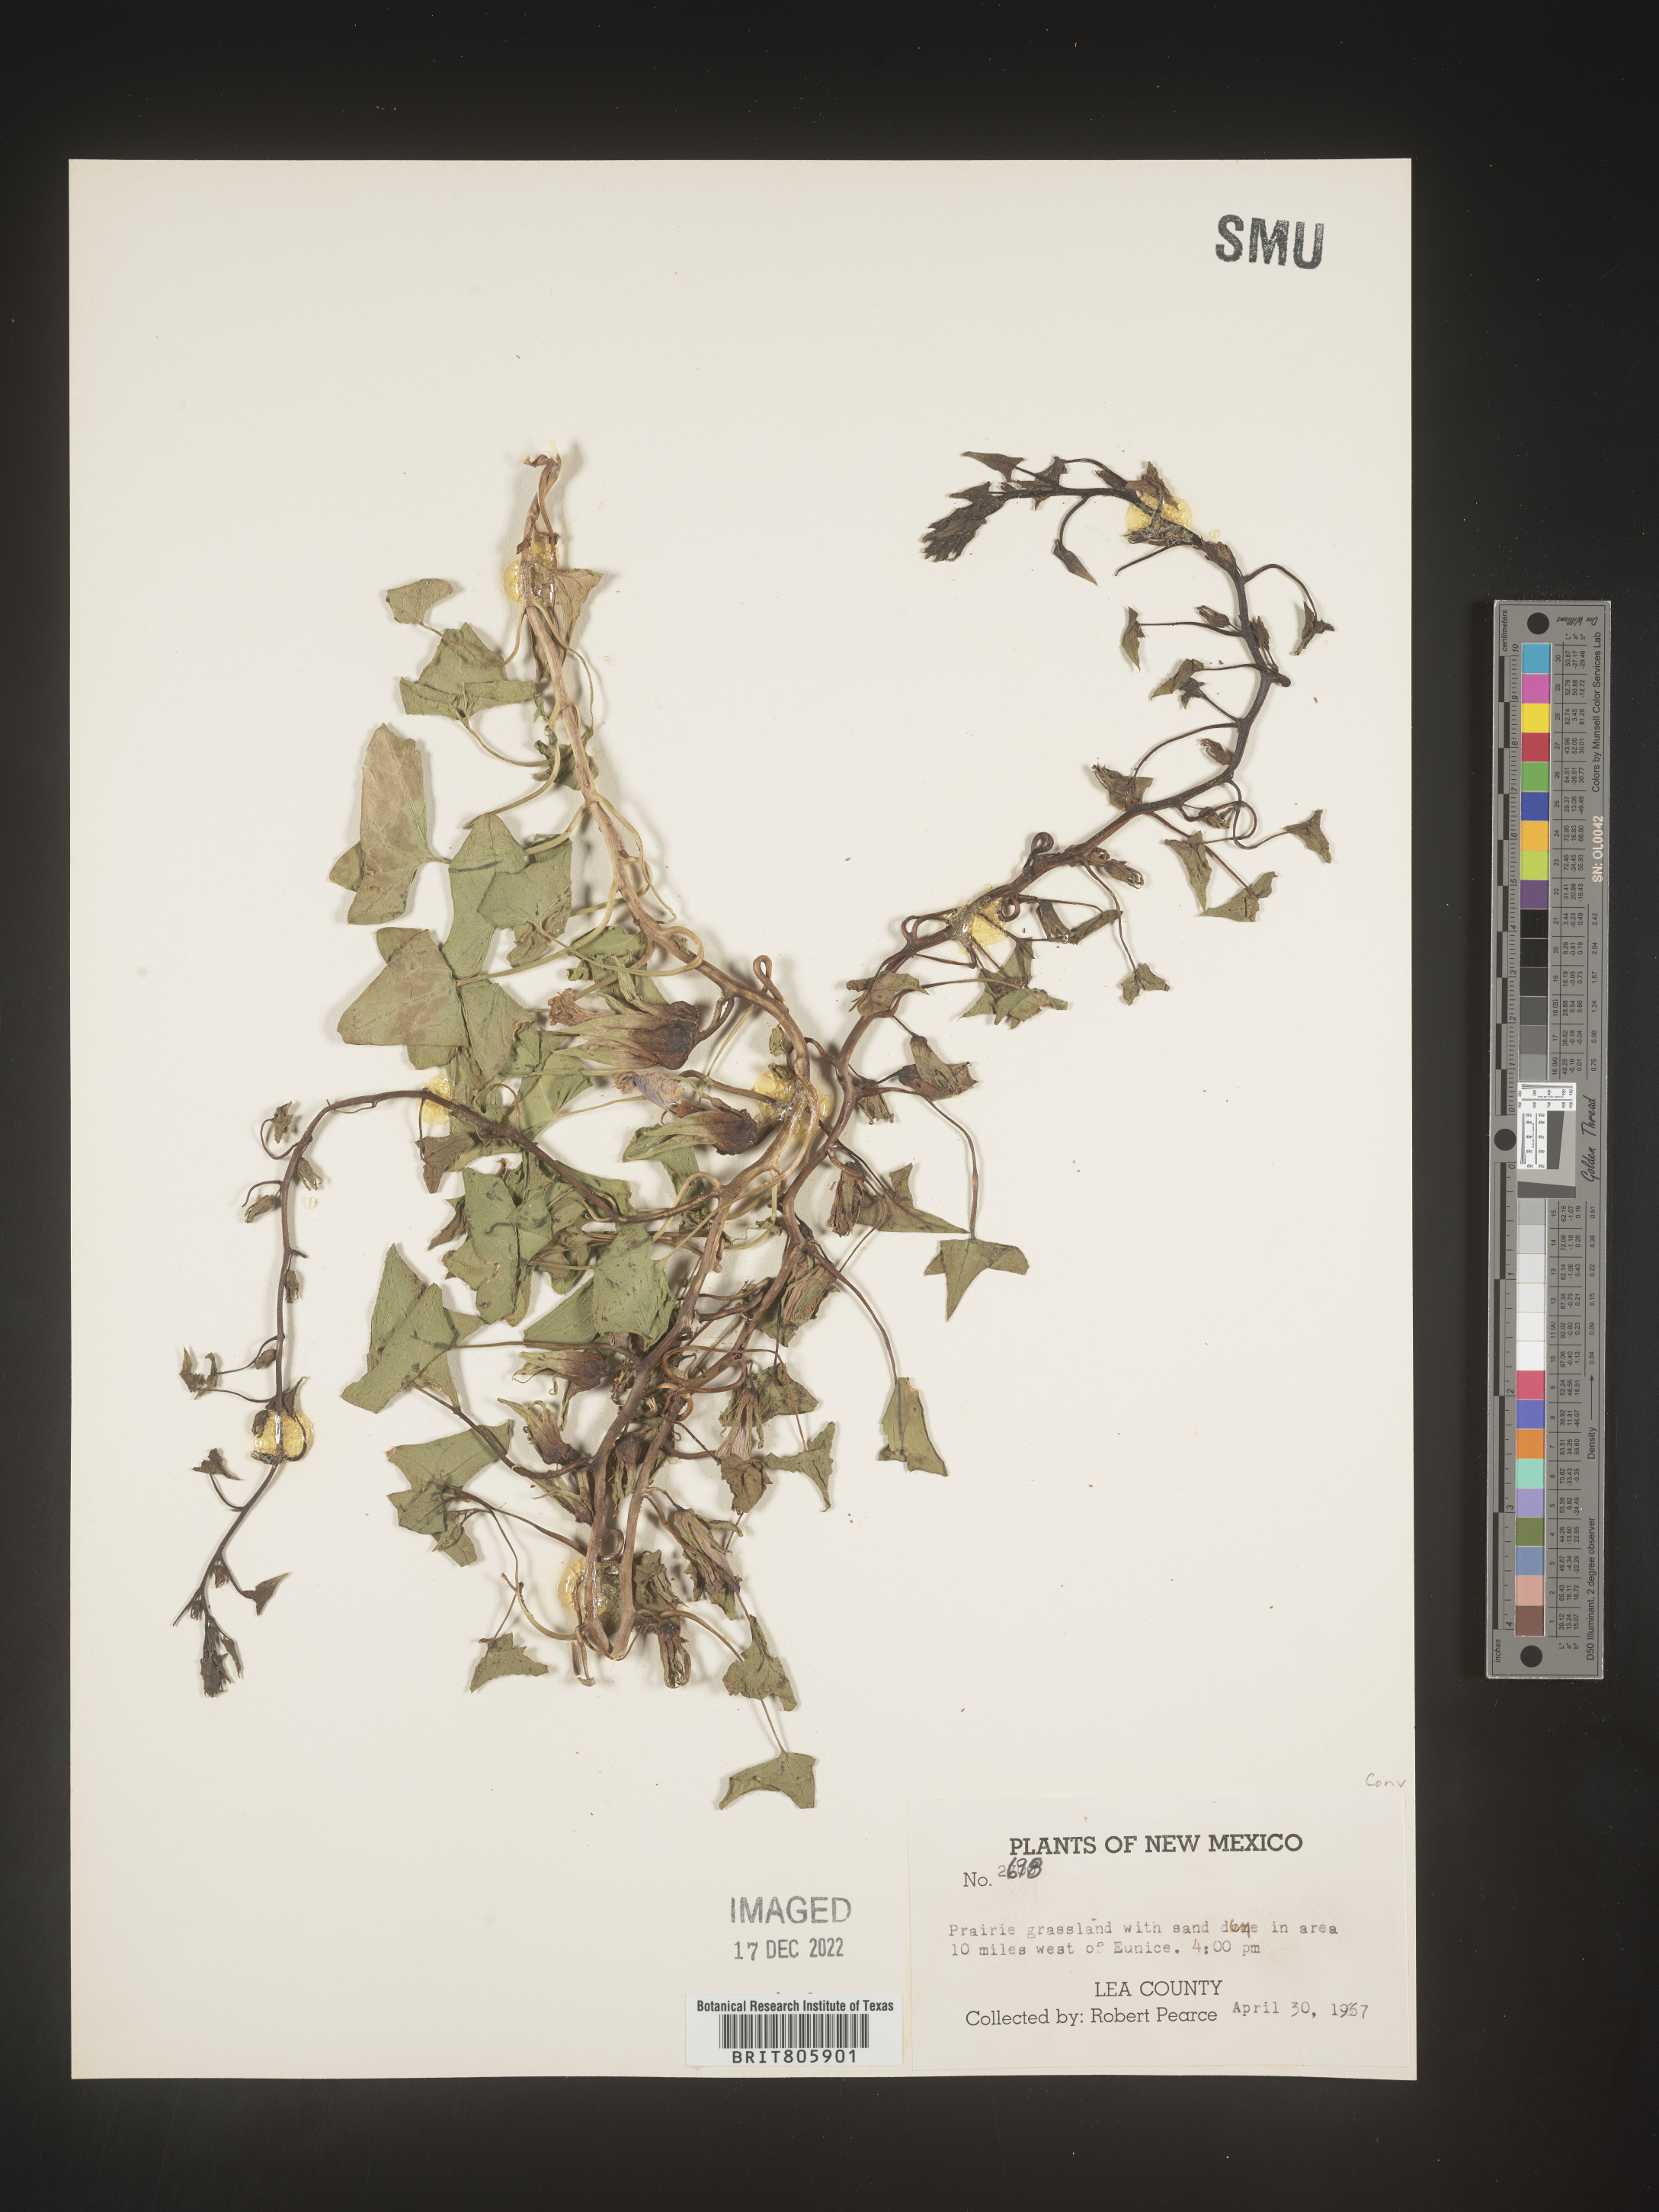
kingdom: Animalia
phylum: Mollusca
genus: Turbina
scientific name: Turbina
